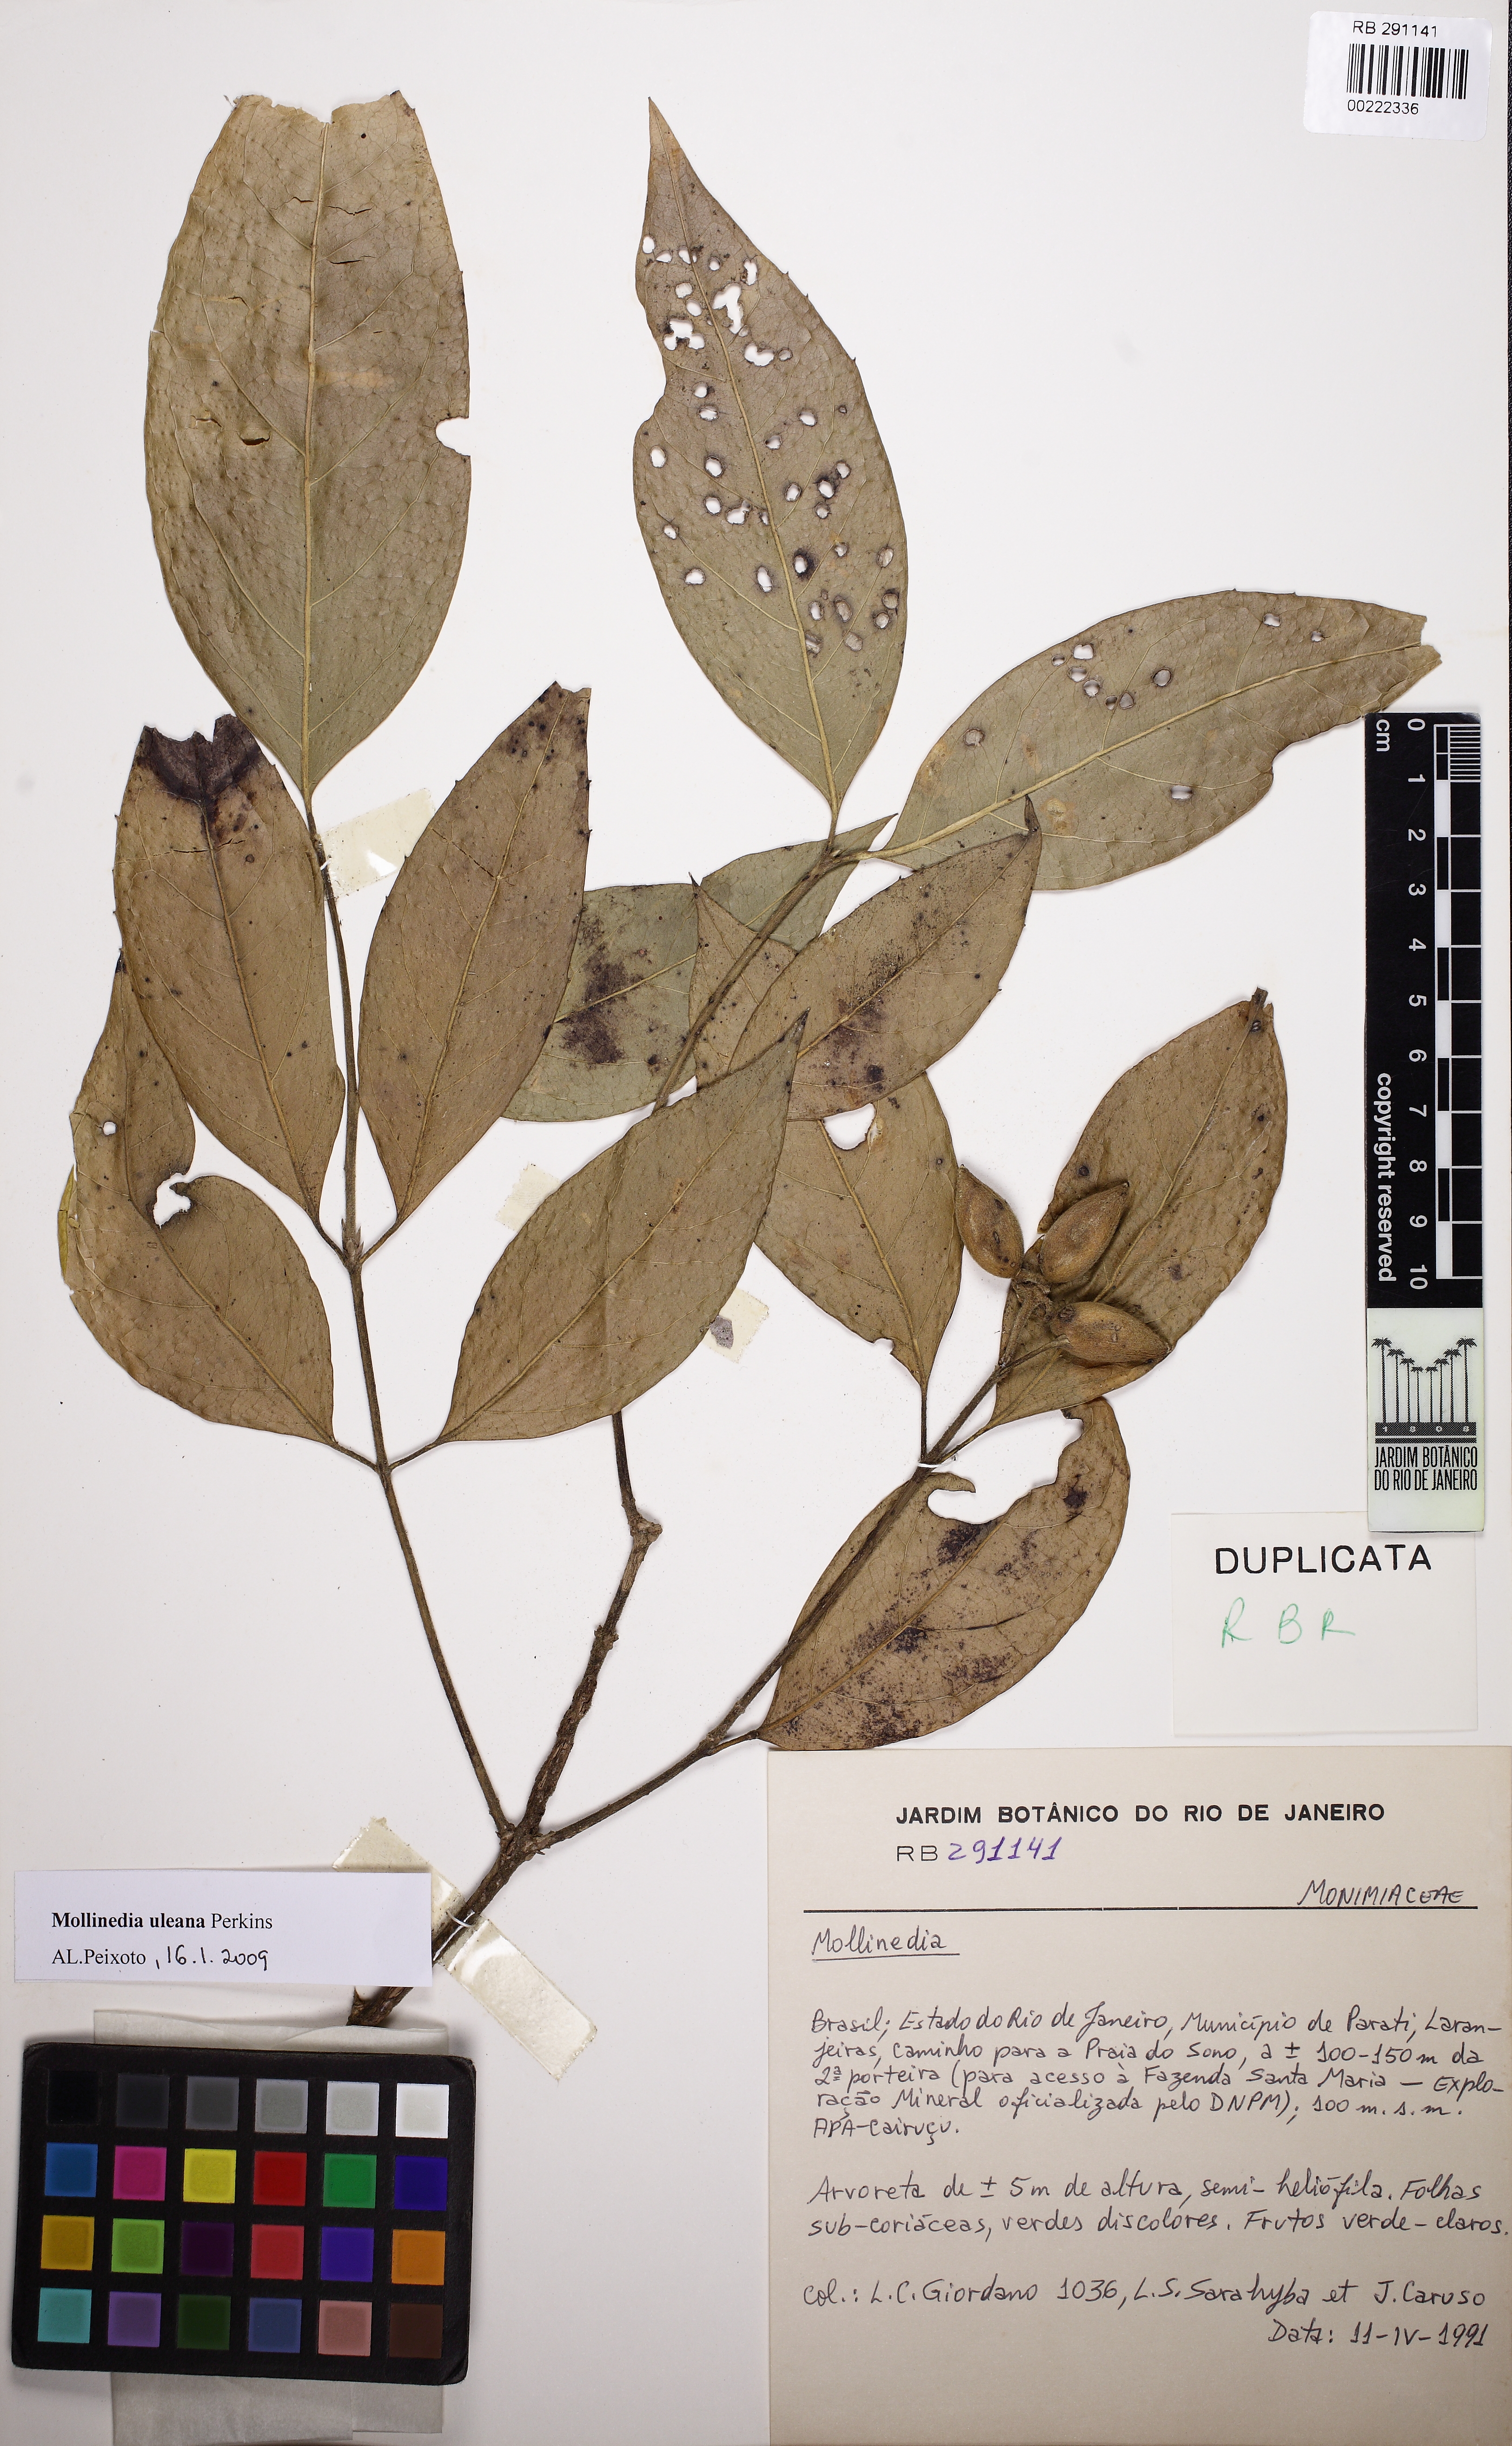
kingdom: Plantae
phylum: Tracheophyta
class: Magnoliopsida
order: Laurales
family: Monimiaceae
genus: Mollinedia
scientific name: Mollinedia uleana
